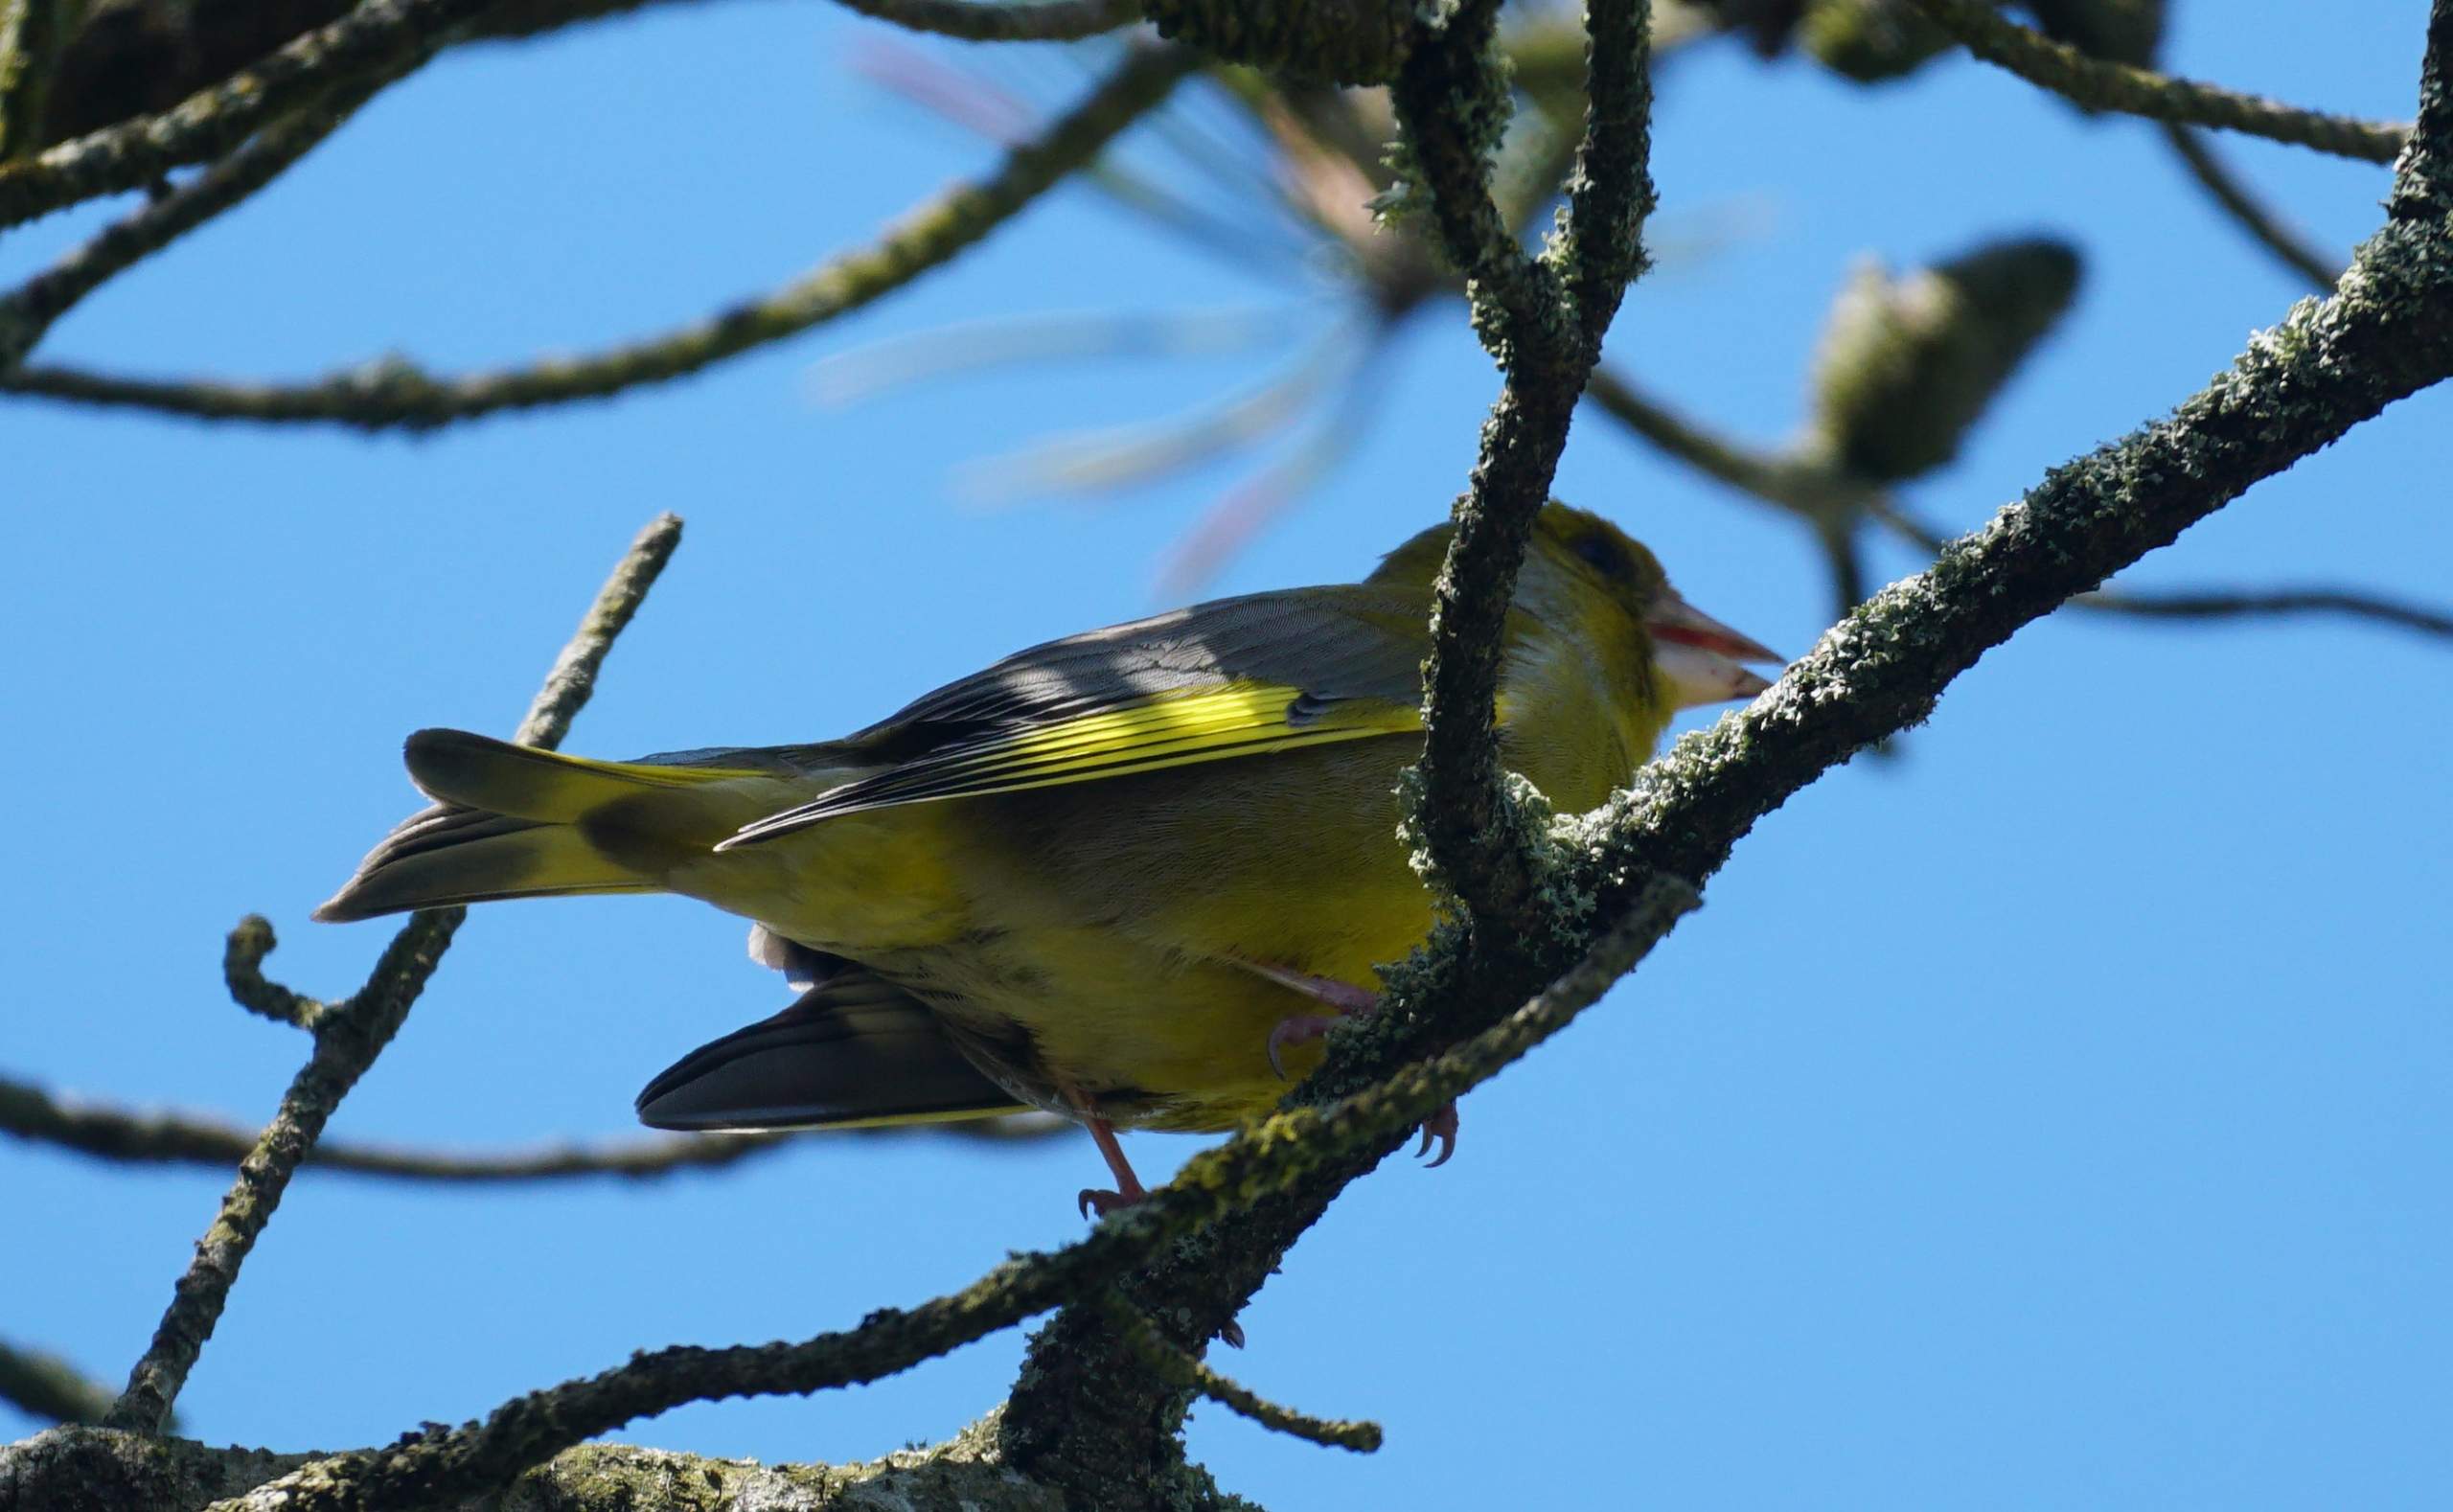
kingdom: Plantae
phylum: Tracheophyta
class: Liliopsida
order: Poales
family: Poaceae
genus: Chloris
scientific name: Chloris chloris
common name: Grønirisk
